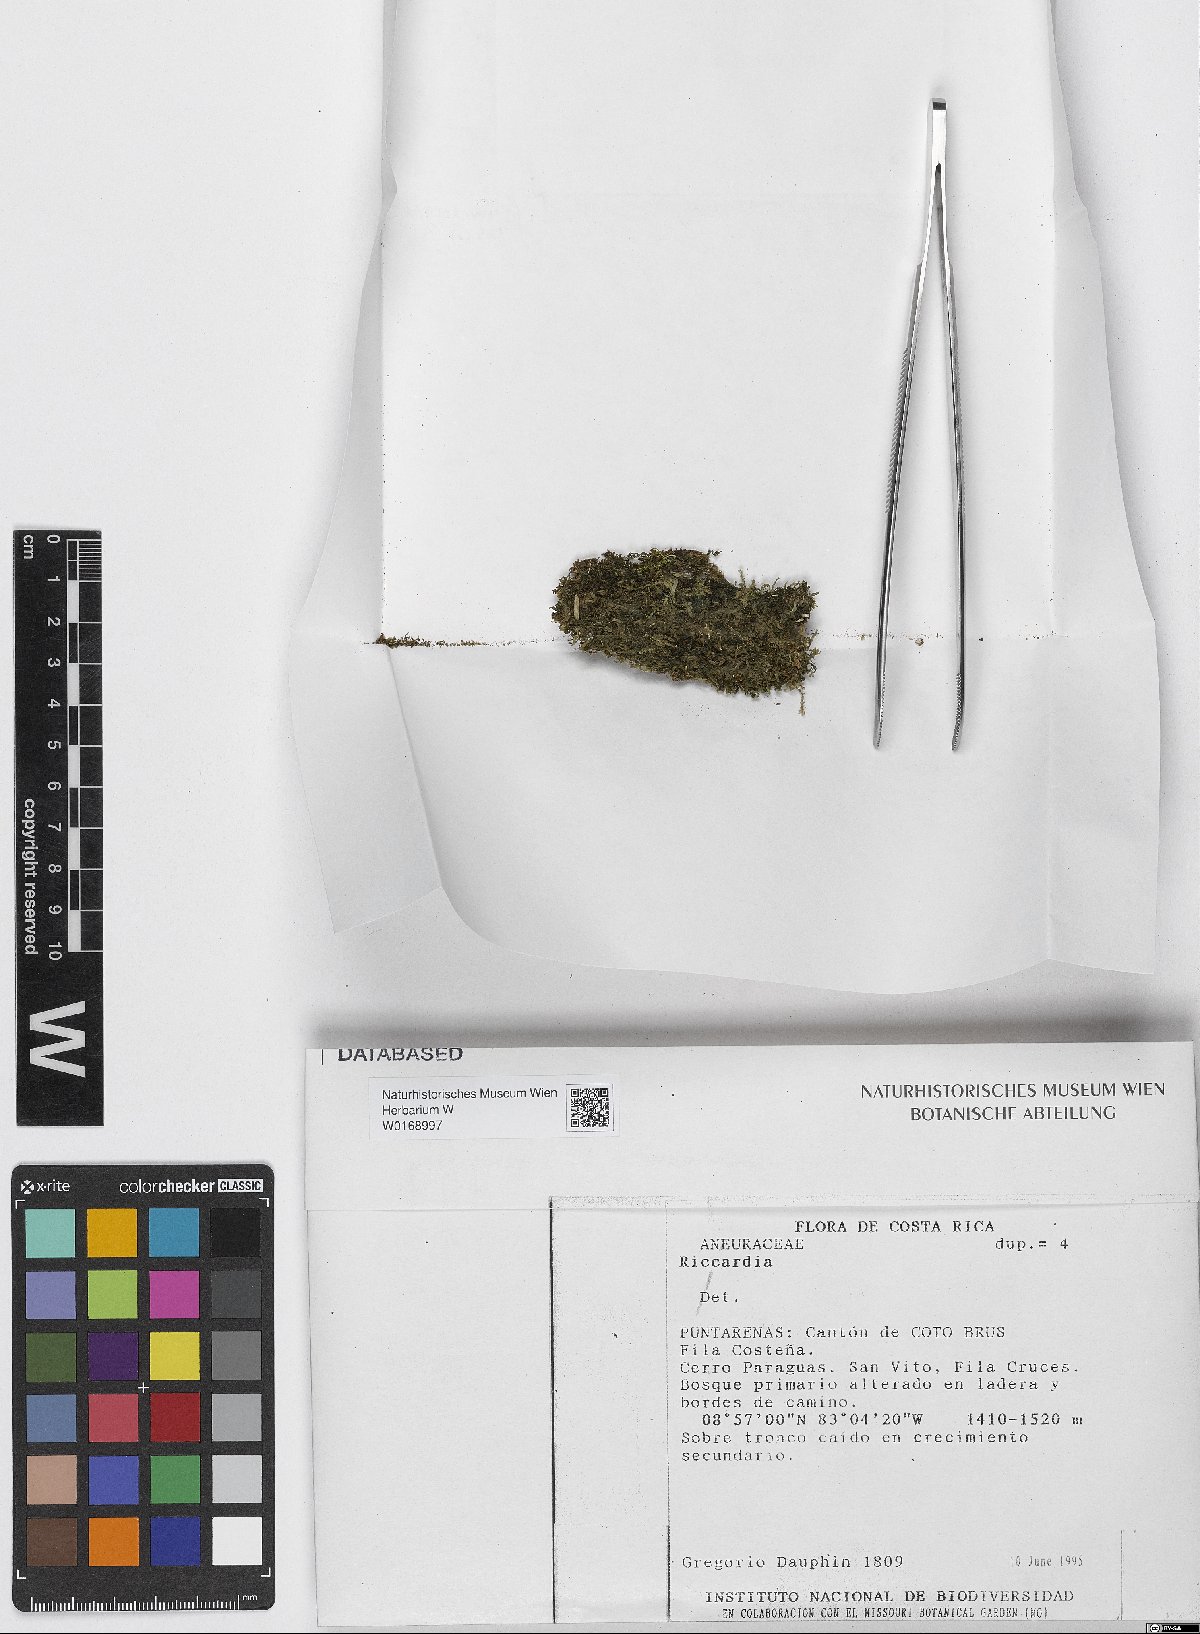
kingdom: Plantae
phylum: Marchantiophyta
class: Jungermanniopsida
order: Metzgeriales
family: Aneuraceae
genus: Riccardia
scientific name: Riccardia
